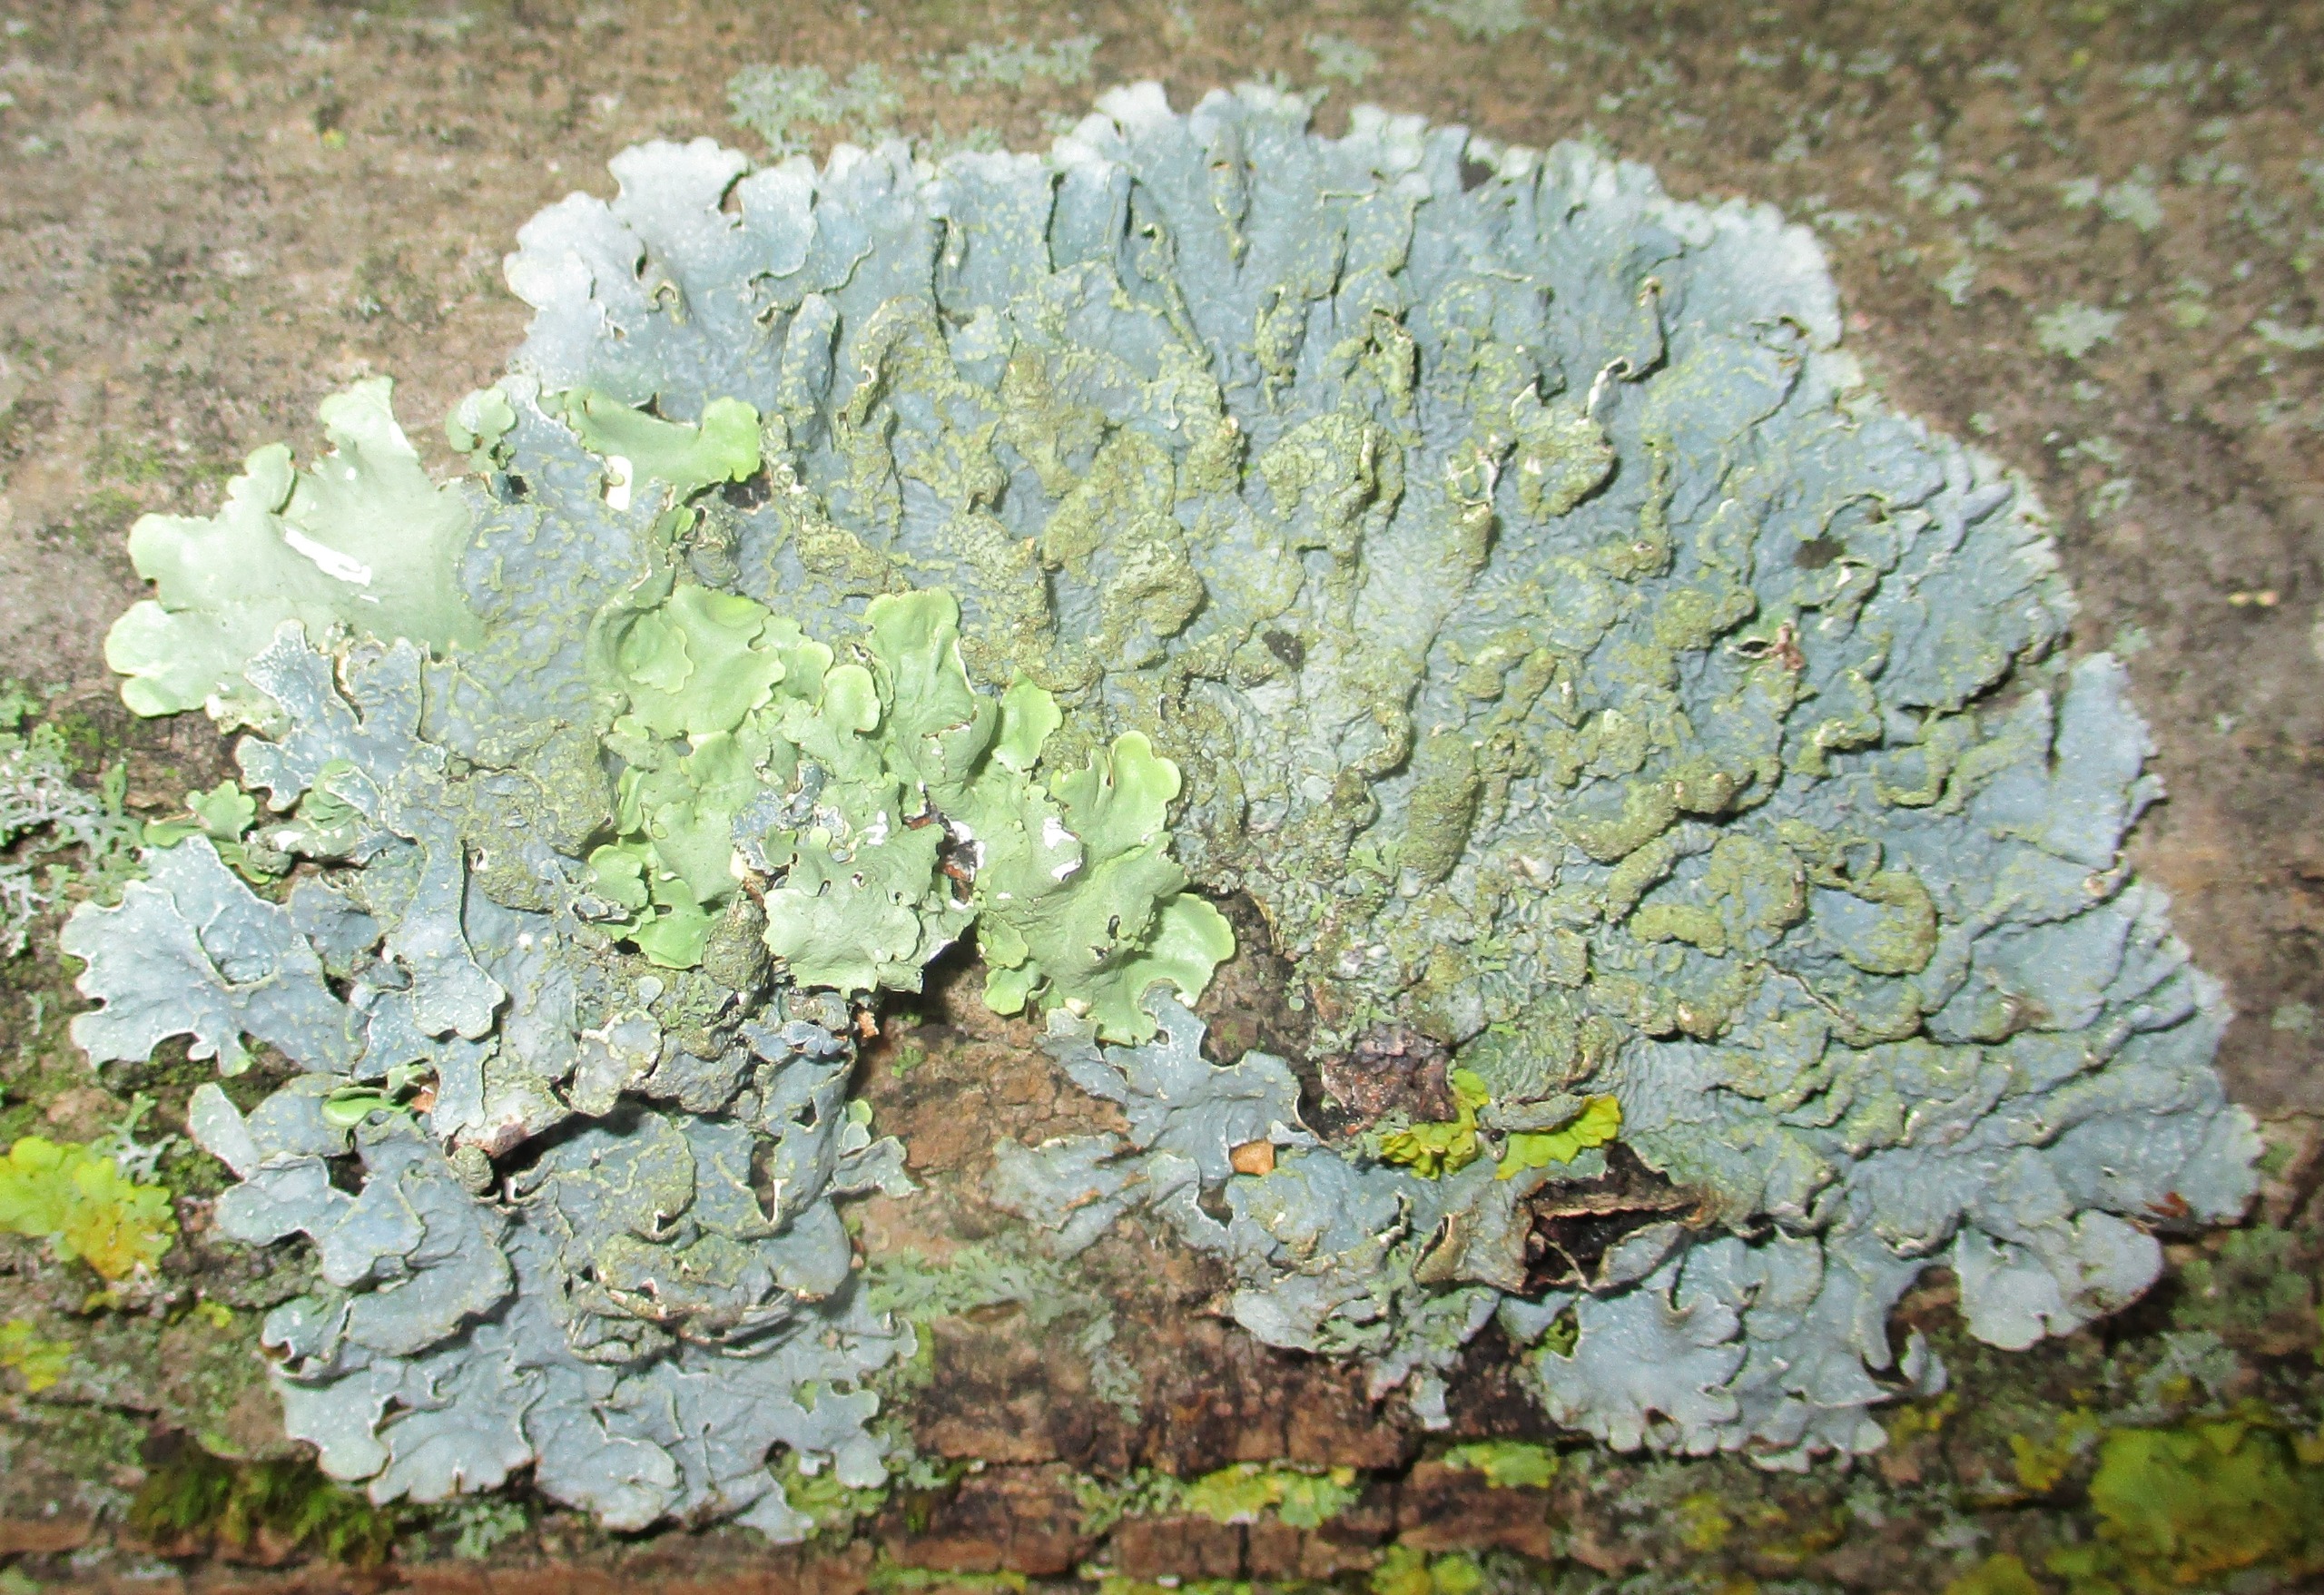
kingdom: Fungi
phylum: Ascomycota
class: Lecanoromycetes
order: Lecanorales
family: Parmeliaceae
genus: Parmelia
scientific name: Parmelia sulcata
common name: Rynket skållav
